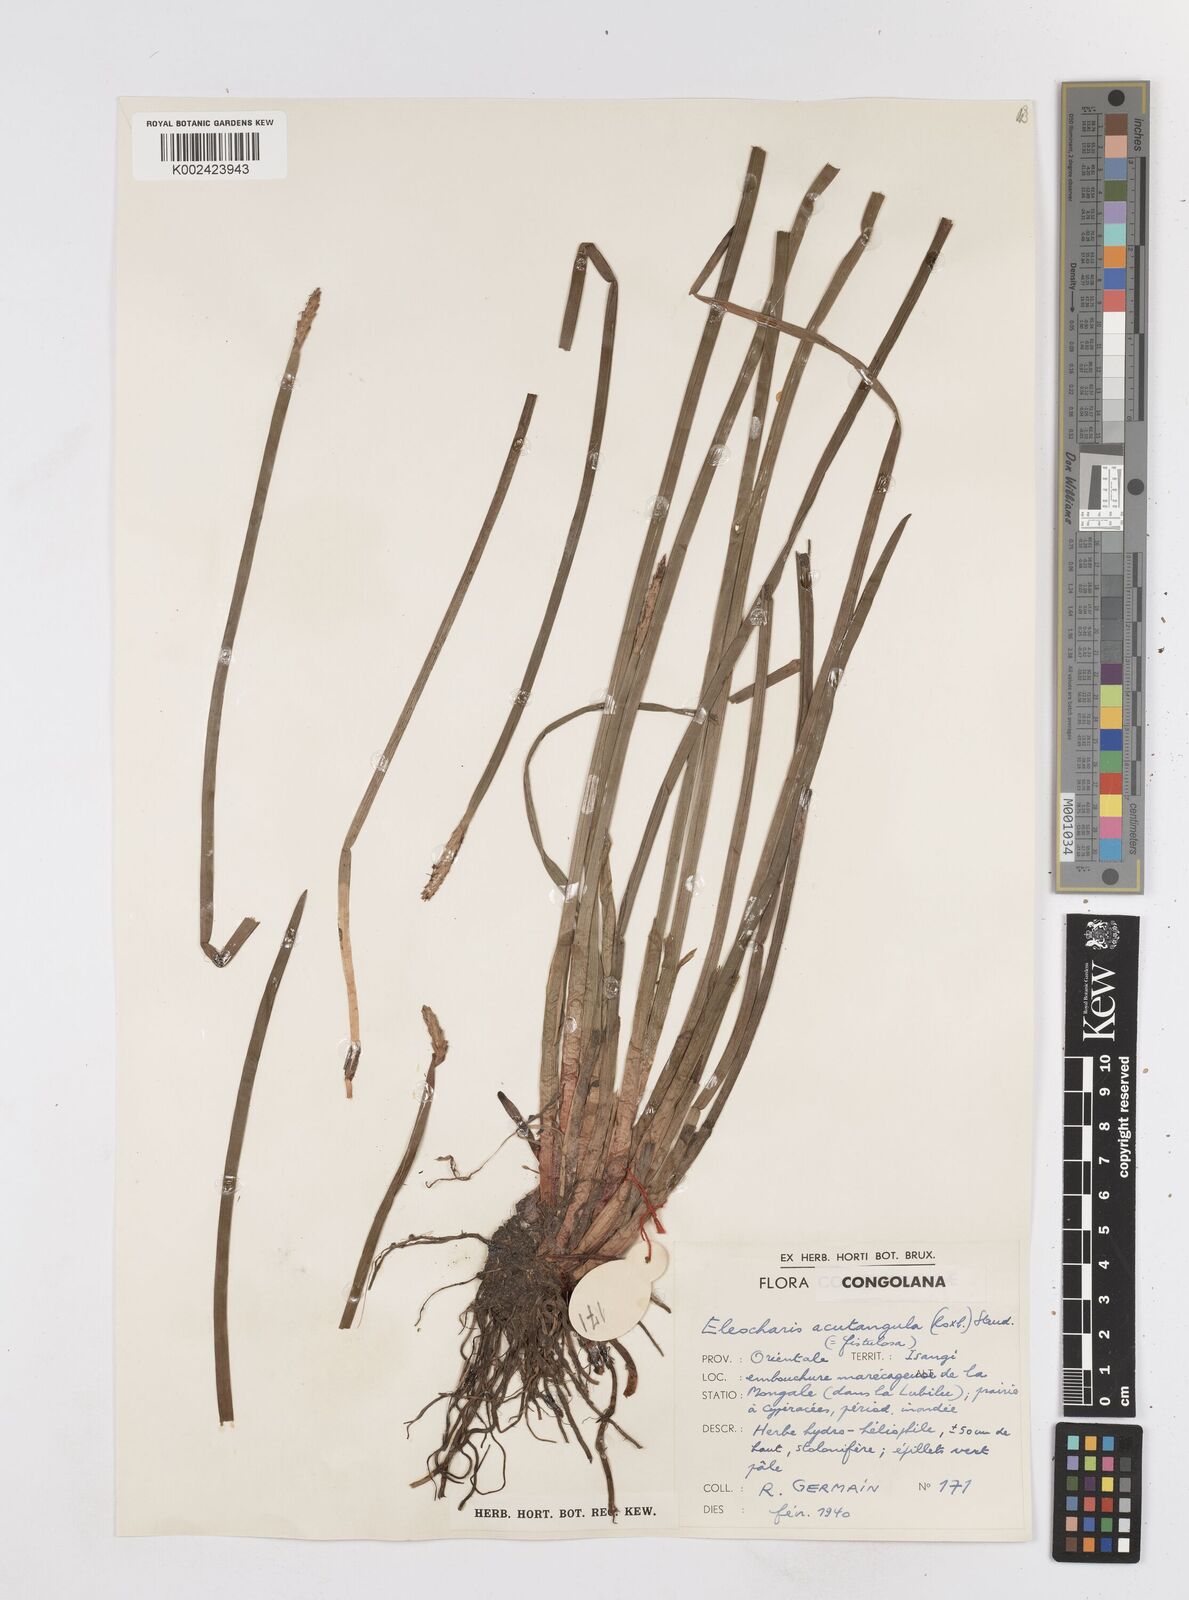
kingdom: Plantae
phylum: Tracheophyta
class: Liliopsida
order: Poales
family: Cyperaceae
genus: Eleocharis
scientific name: Eleocharis acutangula
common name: Acute spikerush
